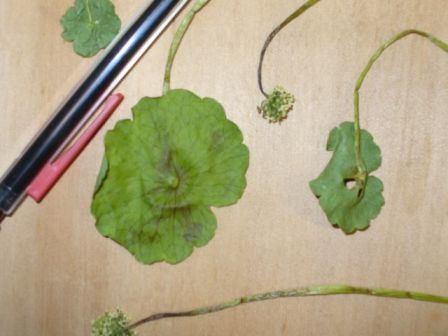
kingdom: Plantae
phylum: Tracheophyta
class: Magnoliopsida
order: Apiales
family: Araliaceae
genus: Hydrocotyle
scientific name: Hydrocotyle bonariensis
